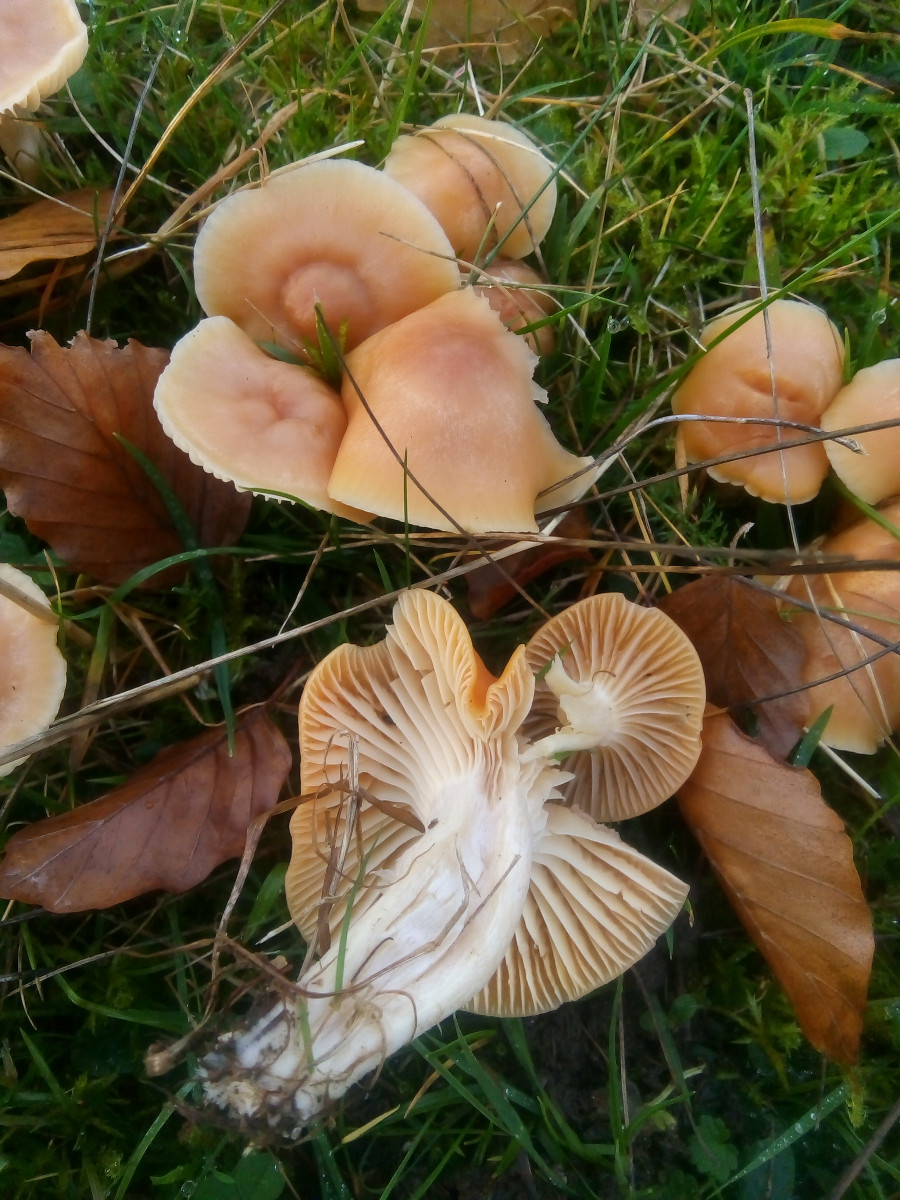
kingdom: Fungi
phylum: Basidiomycota
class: Agaricomycetes
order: Agaricales
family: Hygrophoraceae
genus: Cuphophyllus
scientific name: Cuphophyllus pratensis
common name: eng-vokshat
